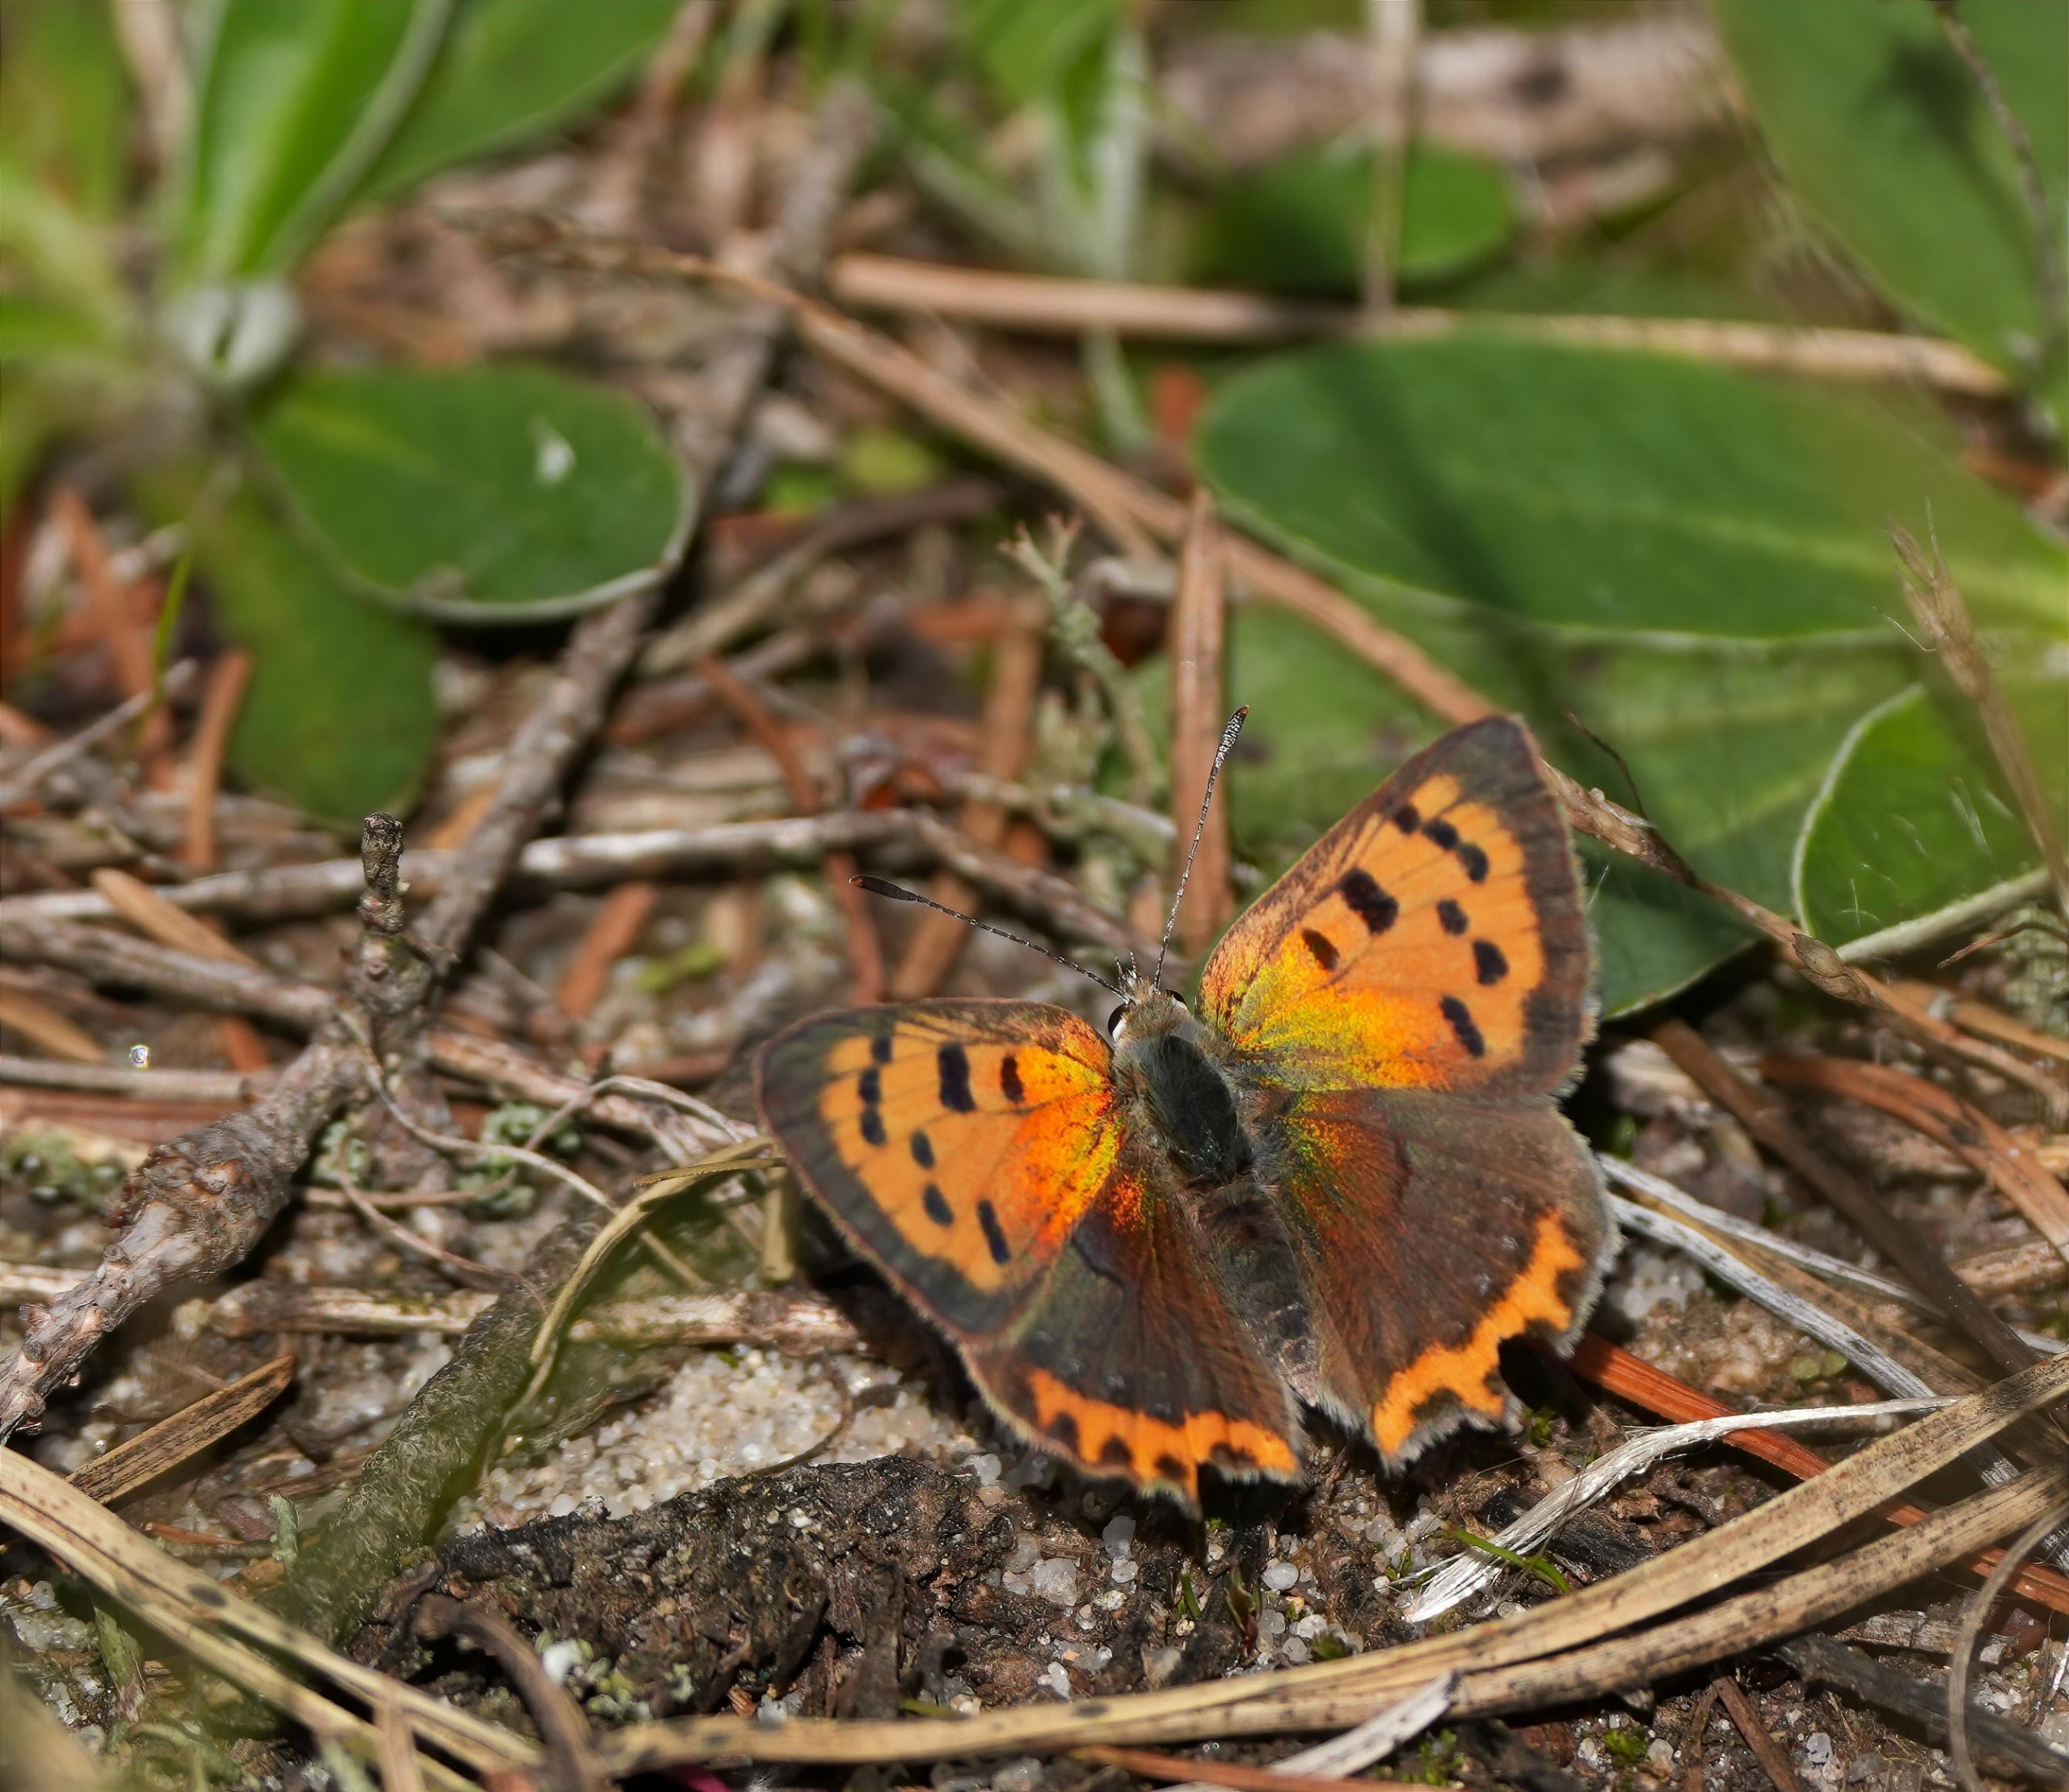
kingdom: Animalia
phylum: Arthropoda
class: Insecta
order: Lepidoptera
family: Lycaenidae
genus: Lycaena
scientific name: Lycaena phlaeas
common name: Lille ildfugl
